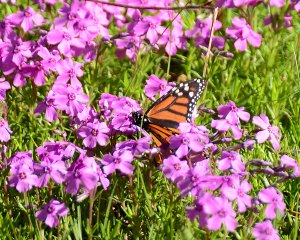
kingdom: Animalia
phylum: Arthropoda
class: Insecta
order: Lepidoptera
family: Nymphalidae
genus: Danaus
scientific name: Danaus plexippus
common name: Monarch
